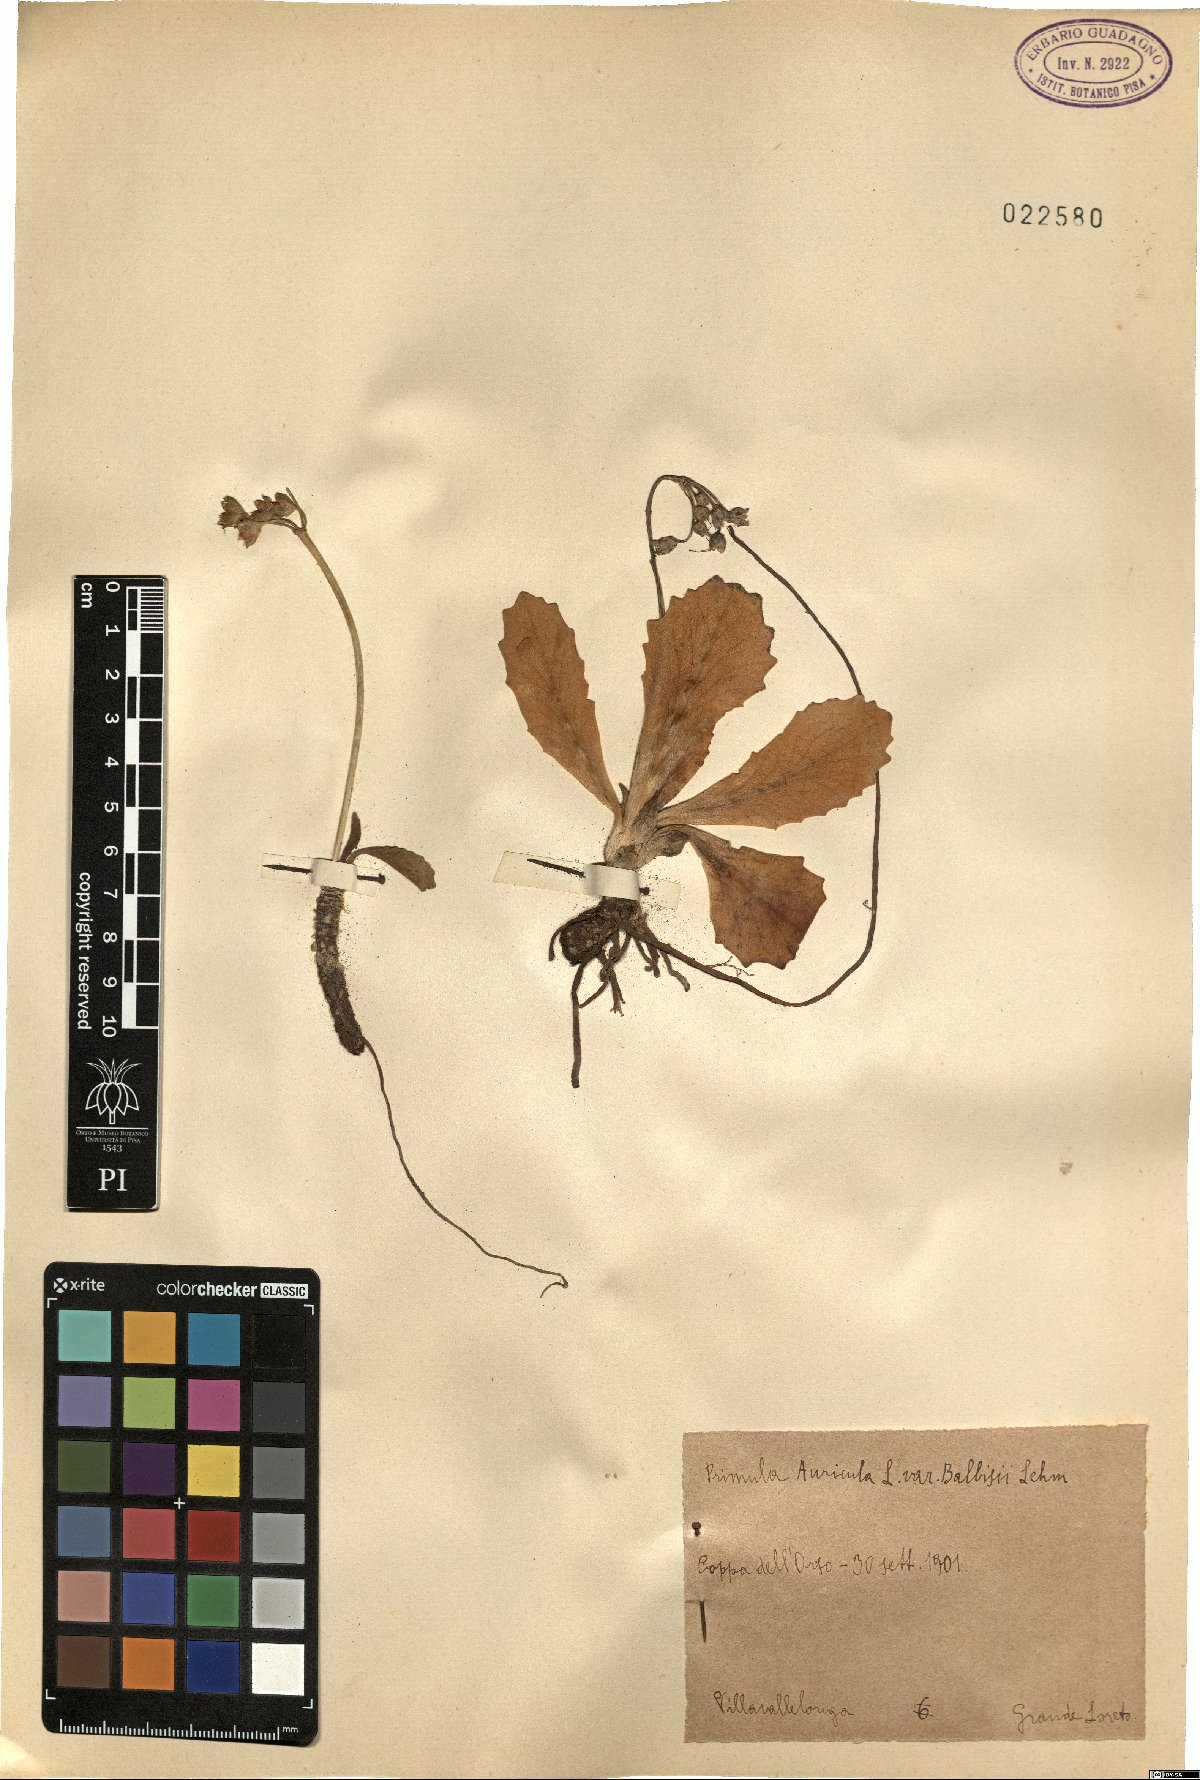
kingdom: Plantae
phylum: Tracheophyta
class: Magnoliopsida
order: Ericales
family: Primulaceae
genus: Primula
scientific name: Primula auricula
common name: Auricula
